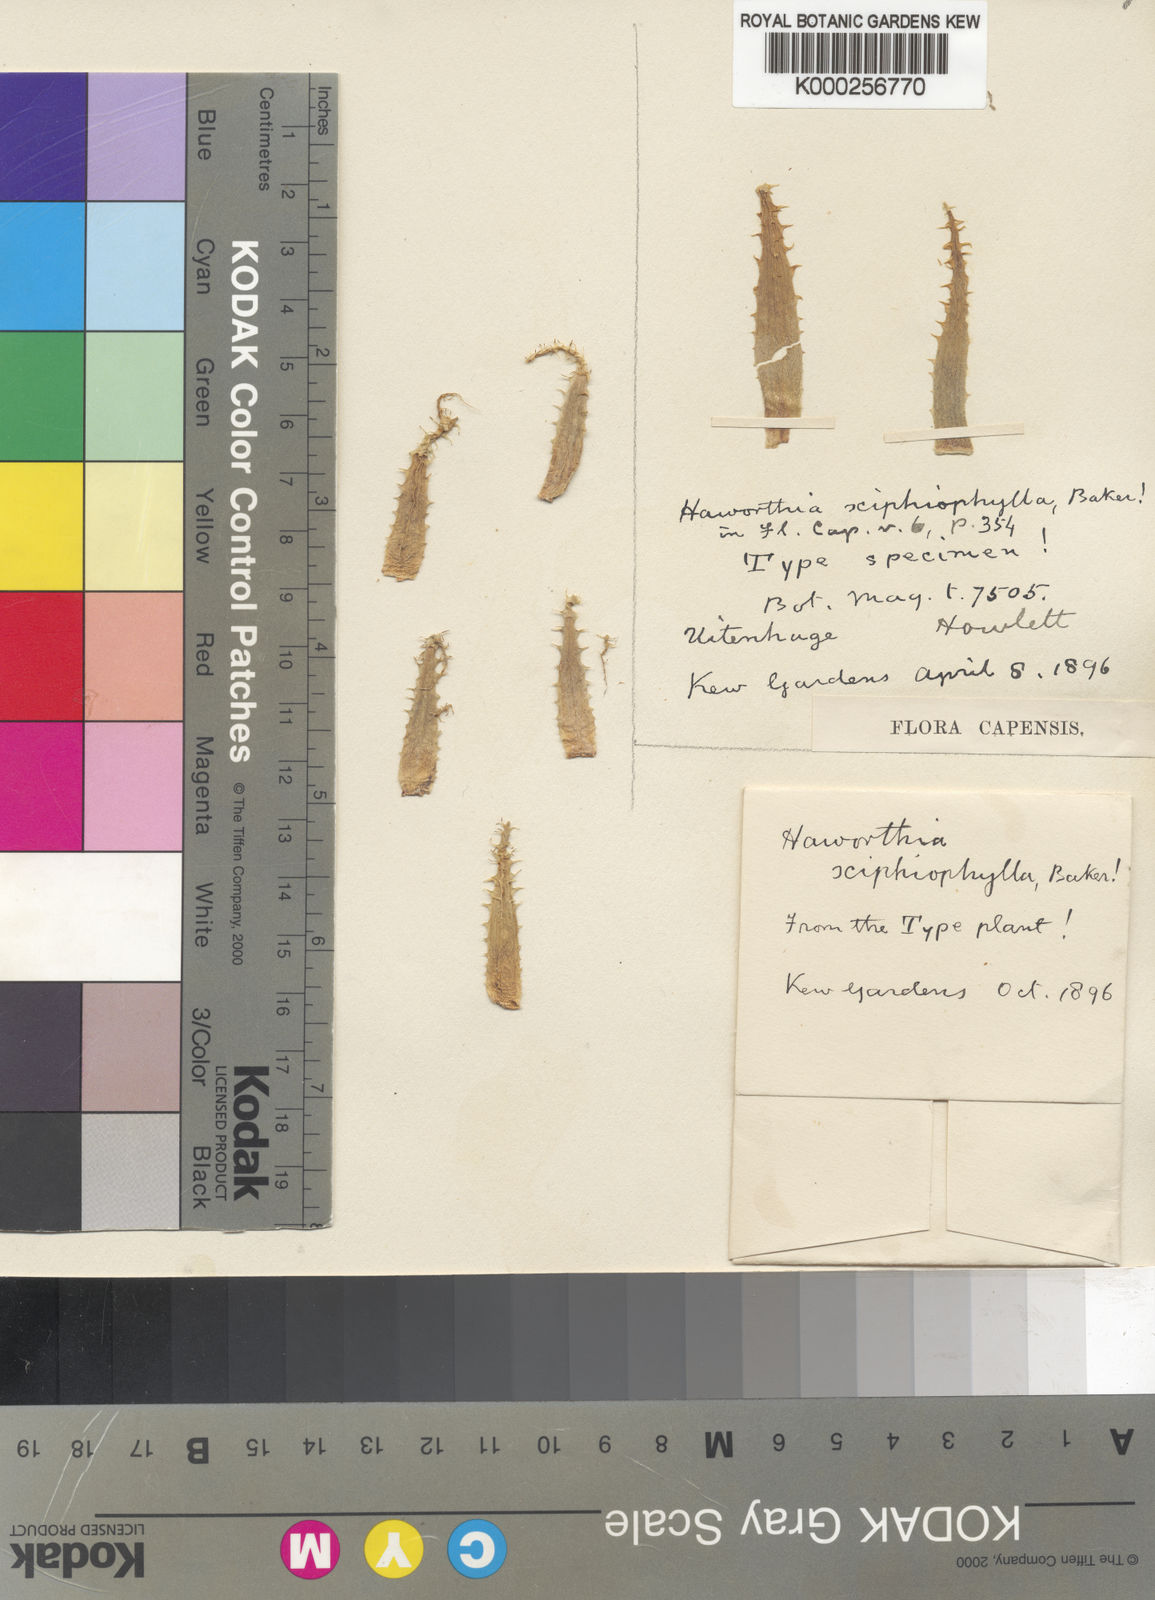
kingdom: Plantae
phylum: Tracheophyta
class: Liliopsida
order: Asparagales
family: Asphodelaceae
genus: Haworthia
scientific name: Haworthia arachnoidea
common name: Cobweb-aloe
